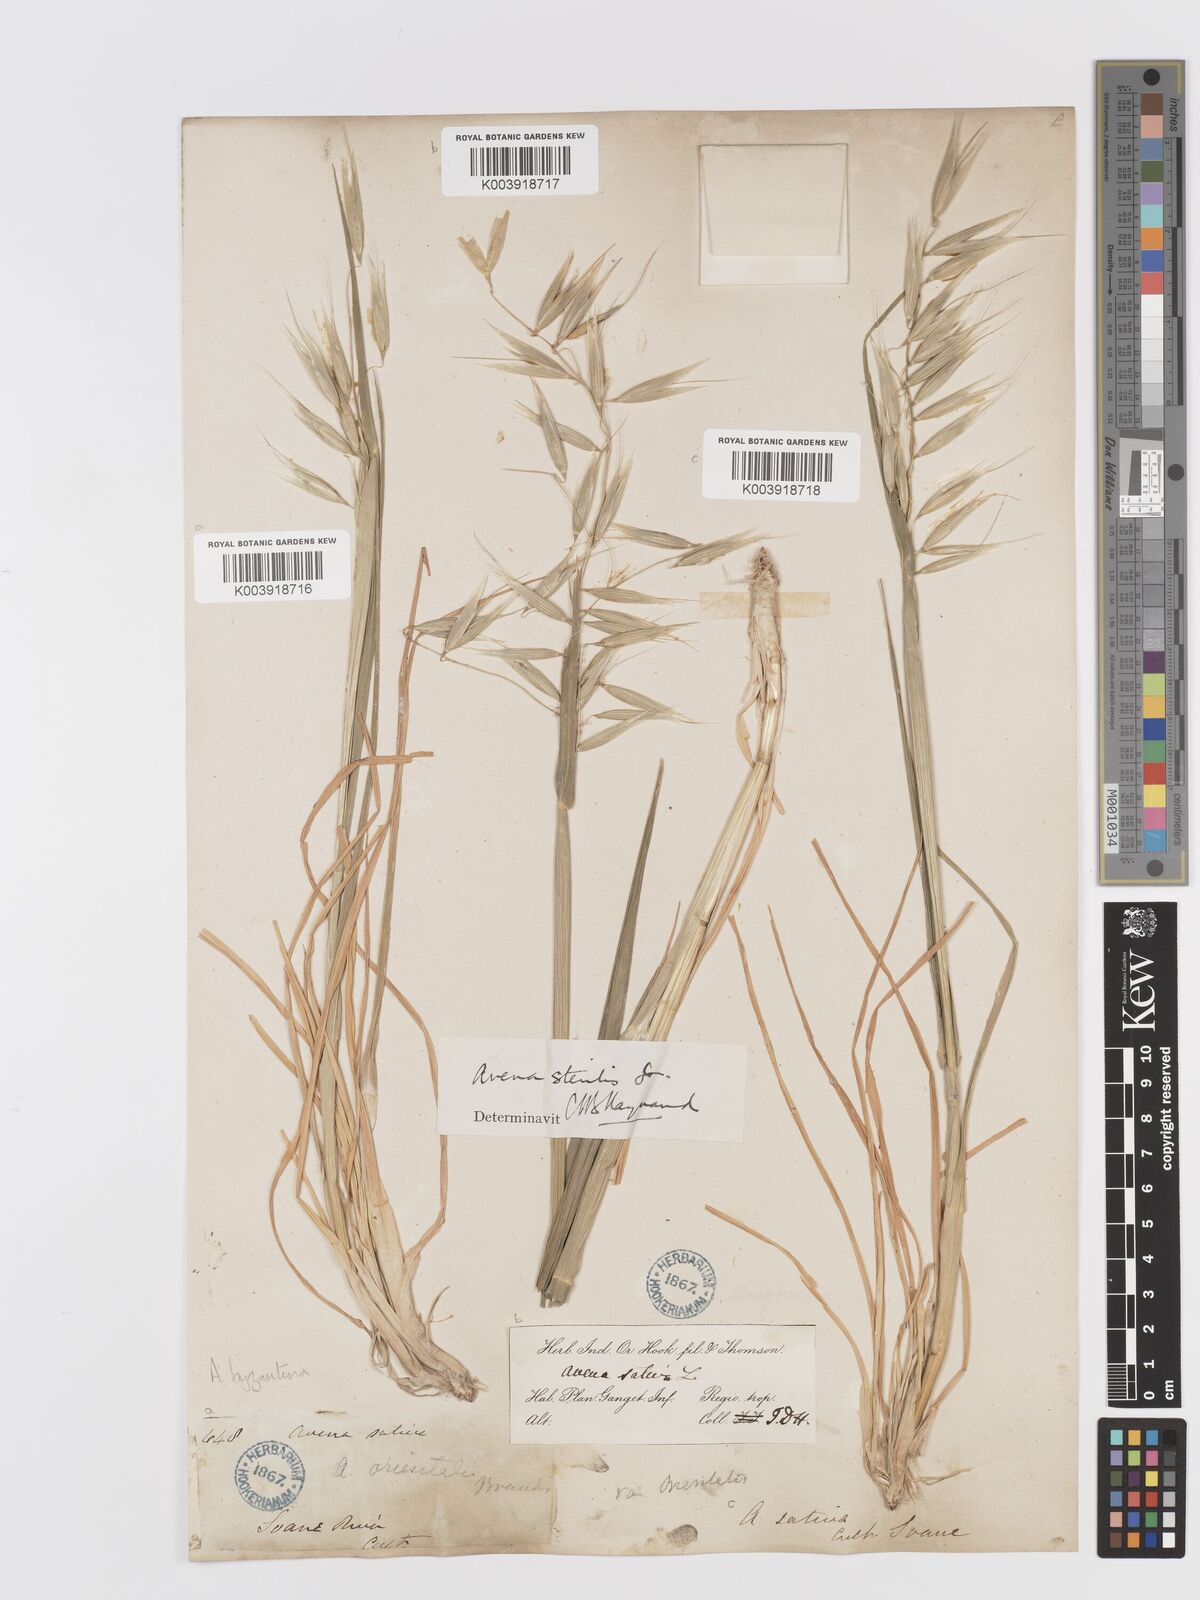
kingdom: Plantae
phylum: Tracheophyta
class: Liliopsida
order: Poales
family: Poaceae
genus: Avena
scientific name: Avena byzantina
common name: Algerian oat
